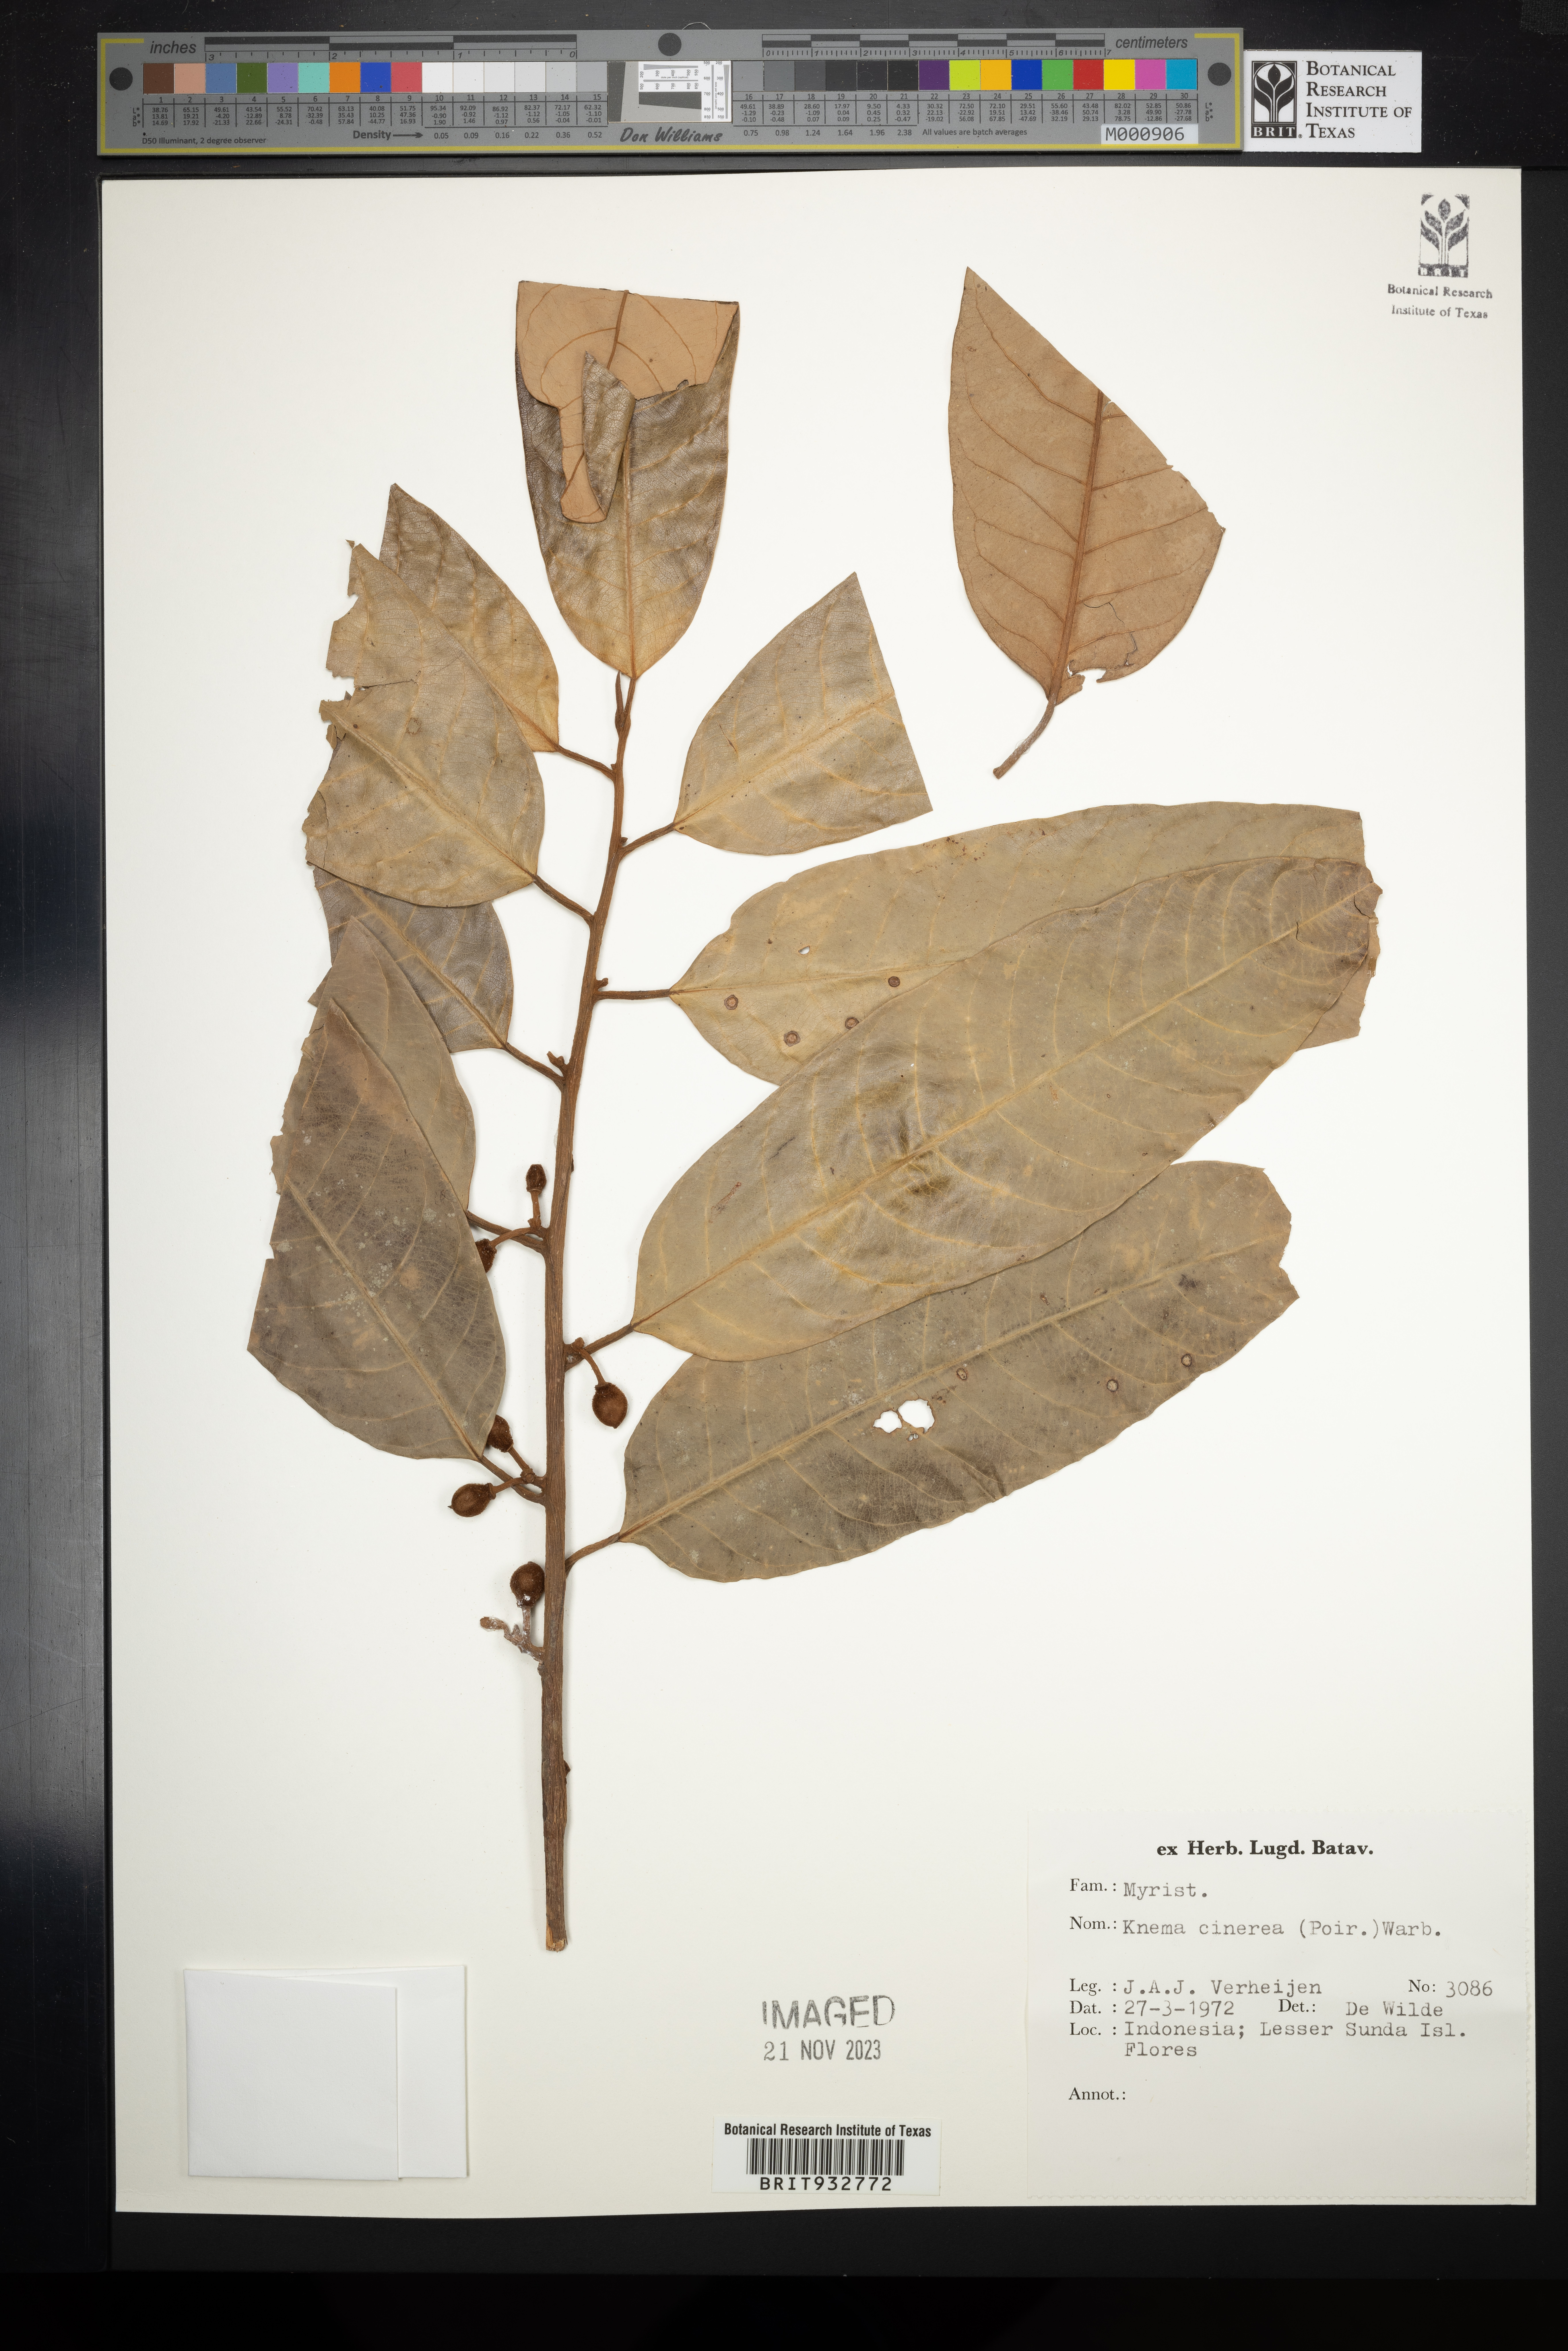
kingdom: Plantae
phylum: Tracheophyta
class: Magnoliopsida
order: Magnoliales
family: Myristicaceae
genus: Knema
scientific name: Knema
